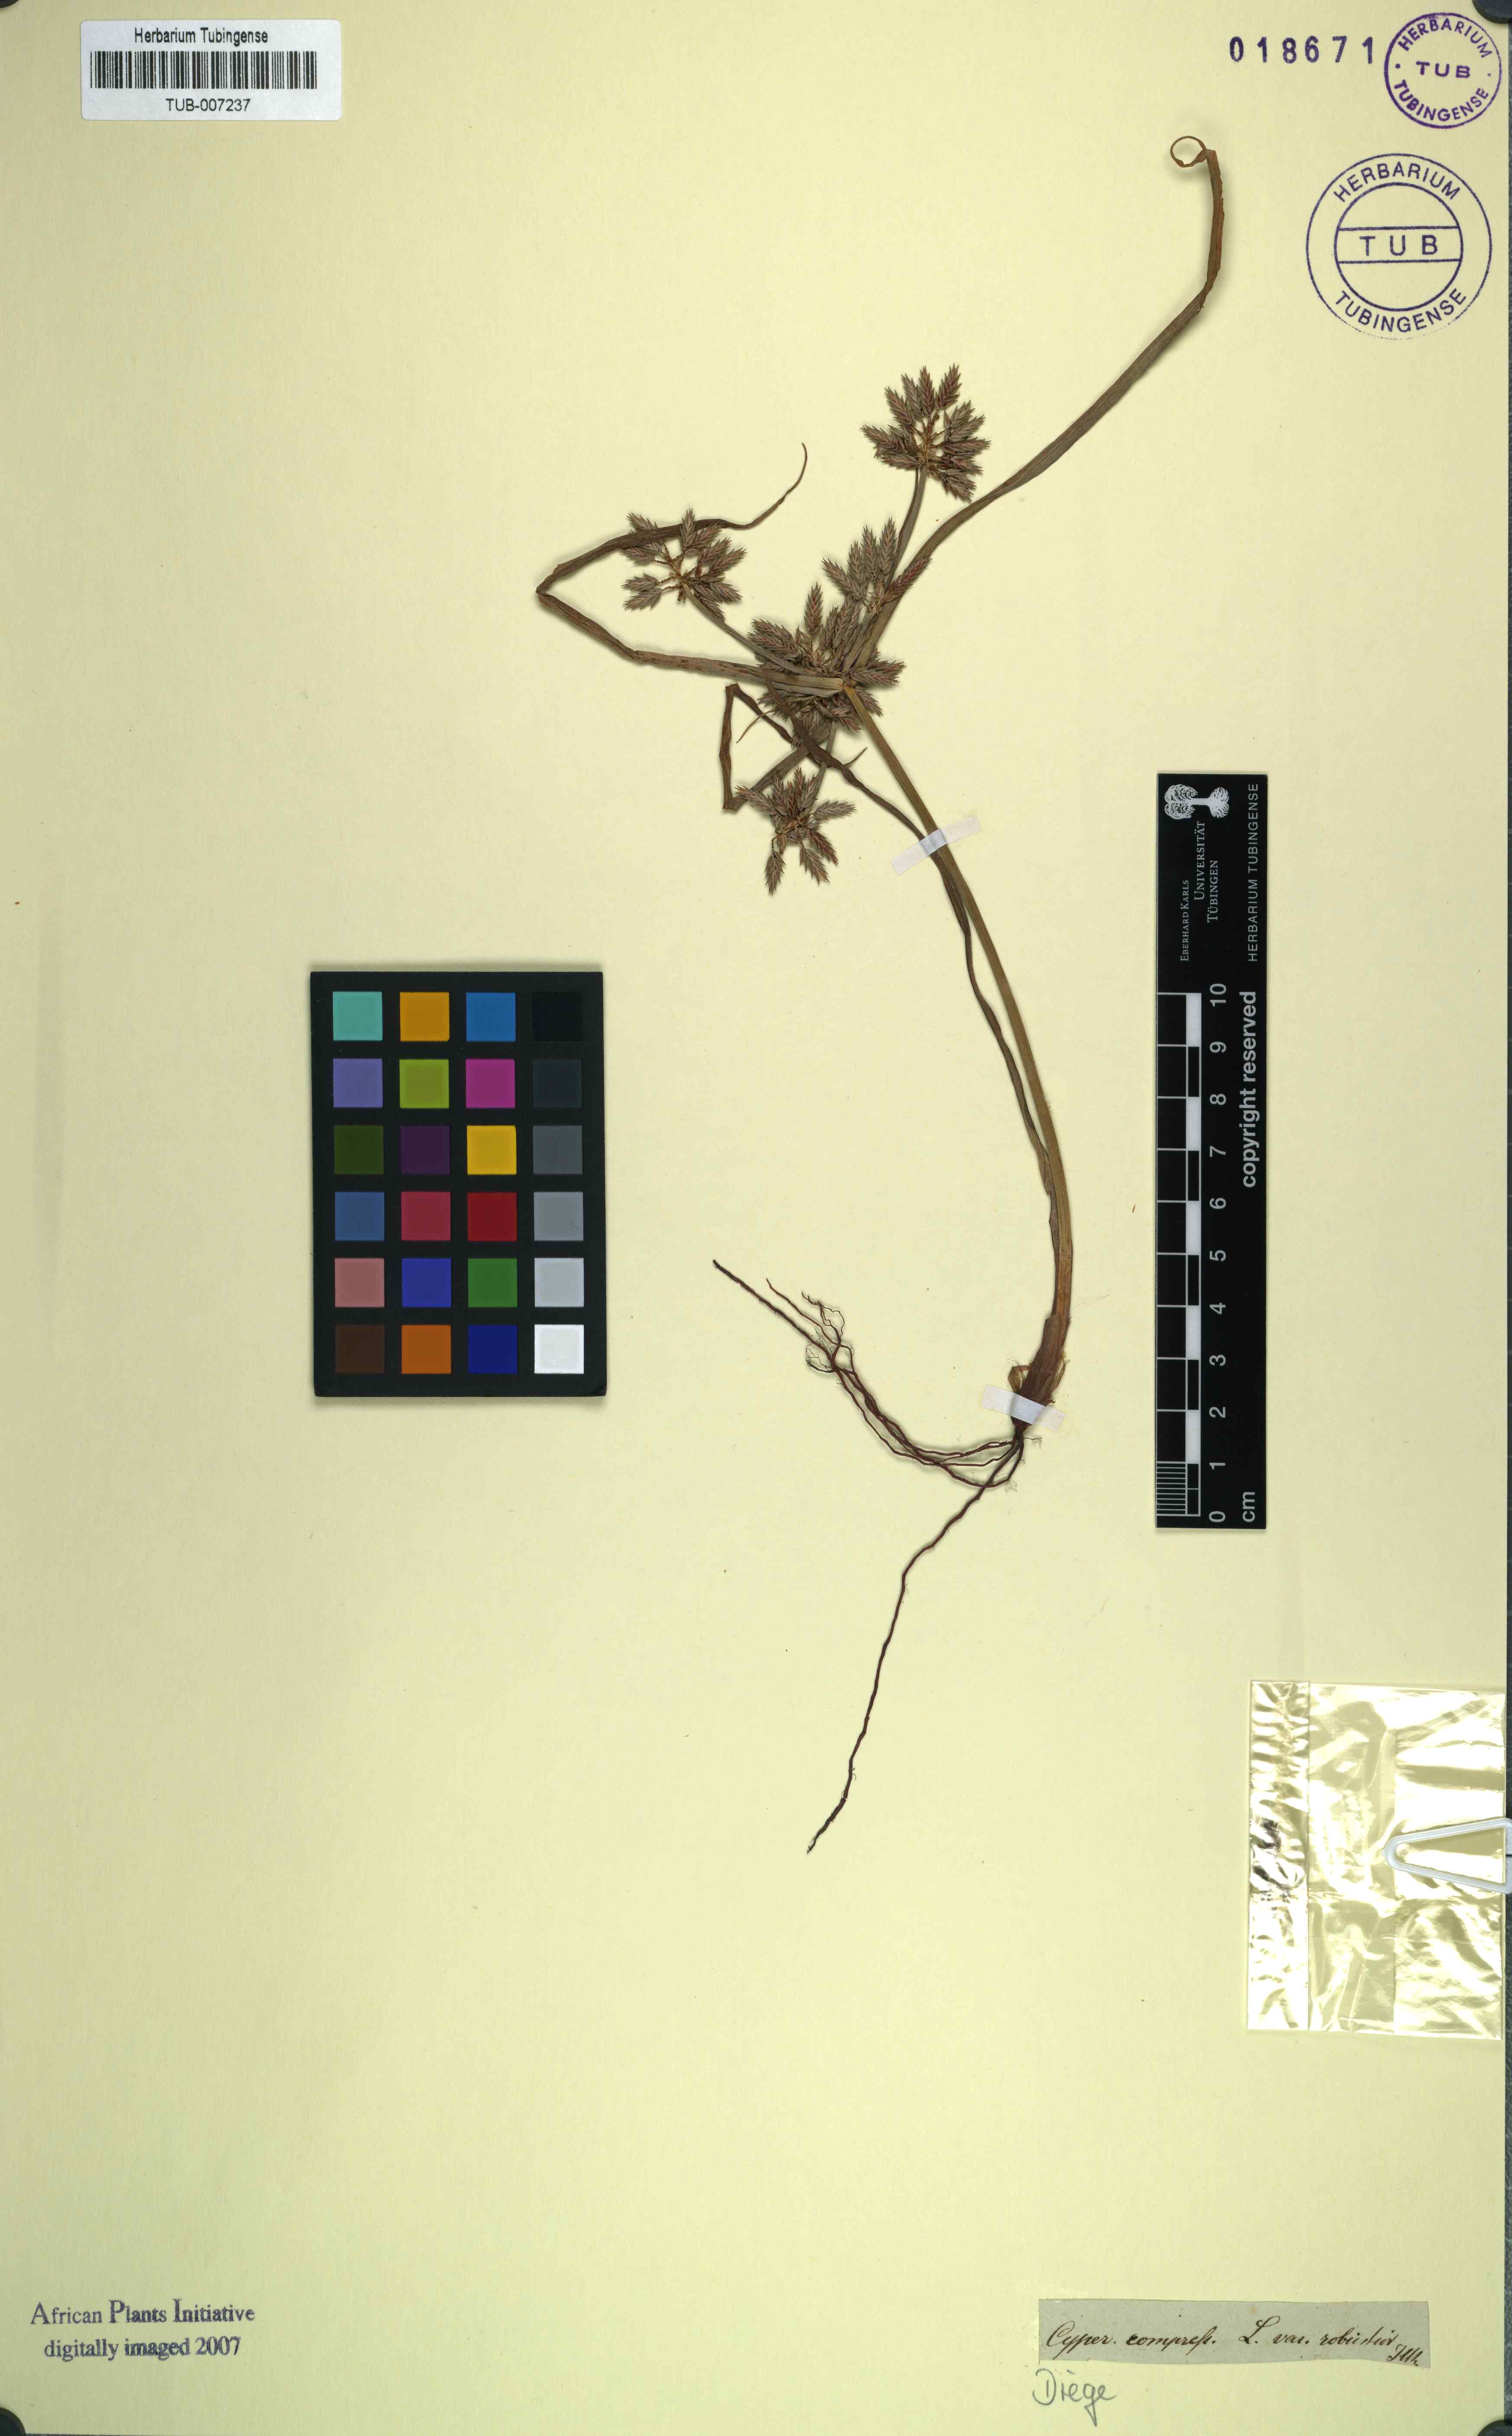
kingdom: Plantae
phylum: Tracheophyta
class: Liliopsida
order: Poales
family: Cyperaceae
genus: Cyperus
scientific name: Cyperus compressus
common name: Poorland flatsedge
